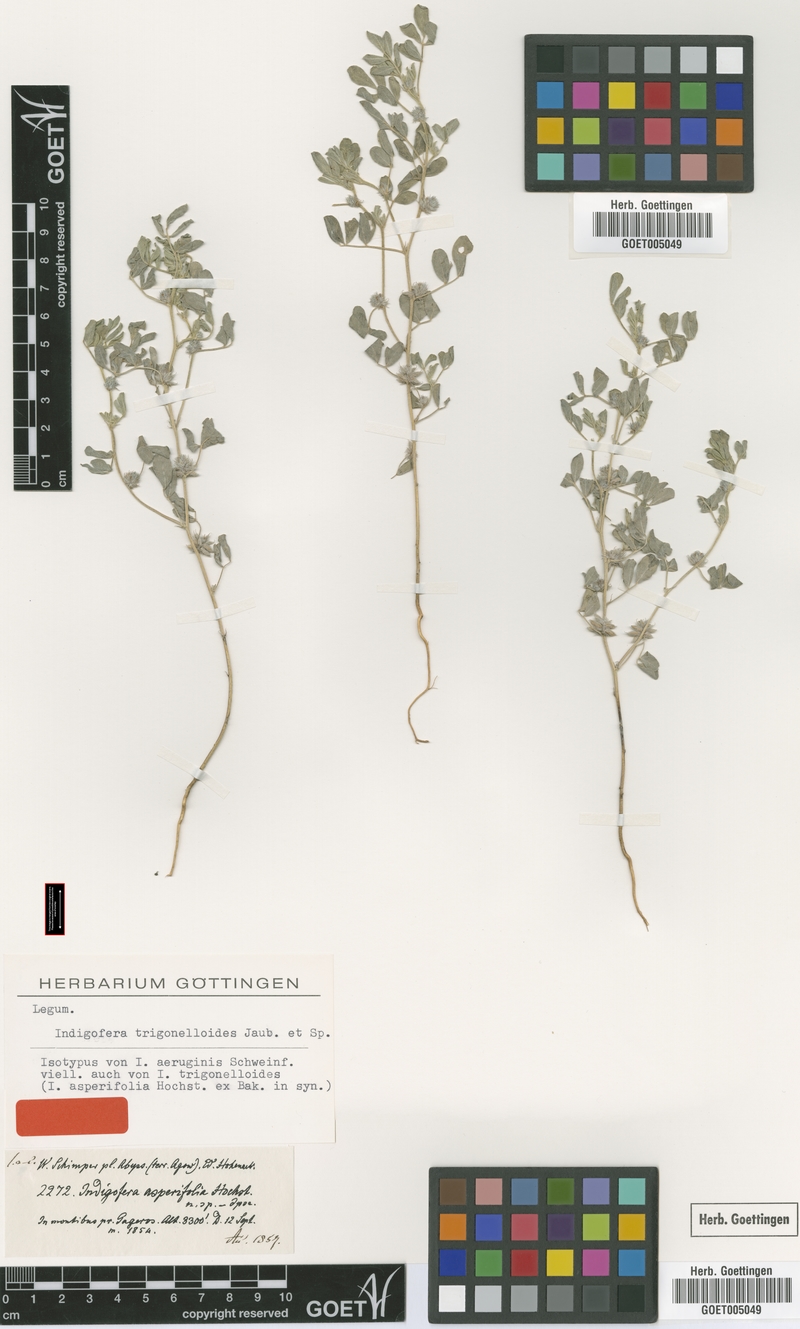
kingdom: Plantae
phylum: Tracheophyta
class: Magnoliopsida
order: Fabales
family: Fabaceae
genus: Indigofera
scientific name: Indigofera trigonelloides
